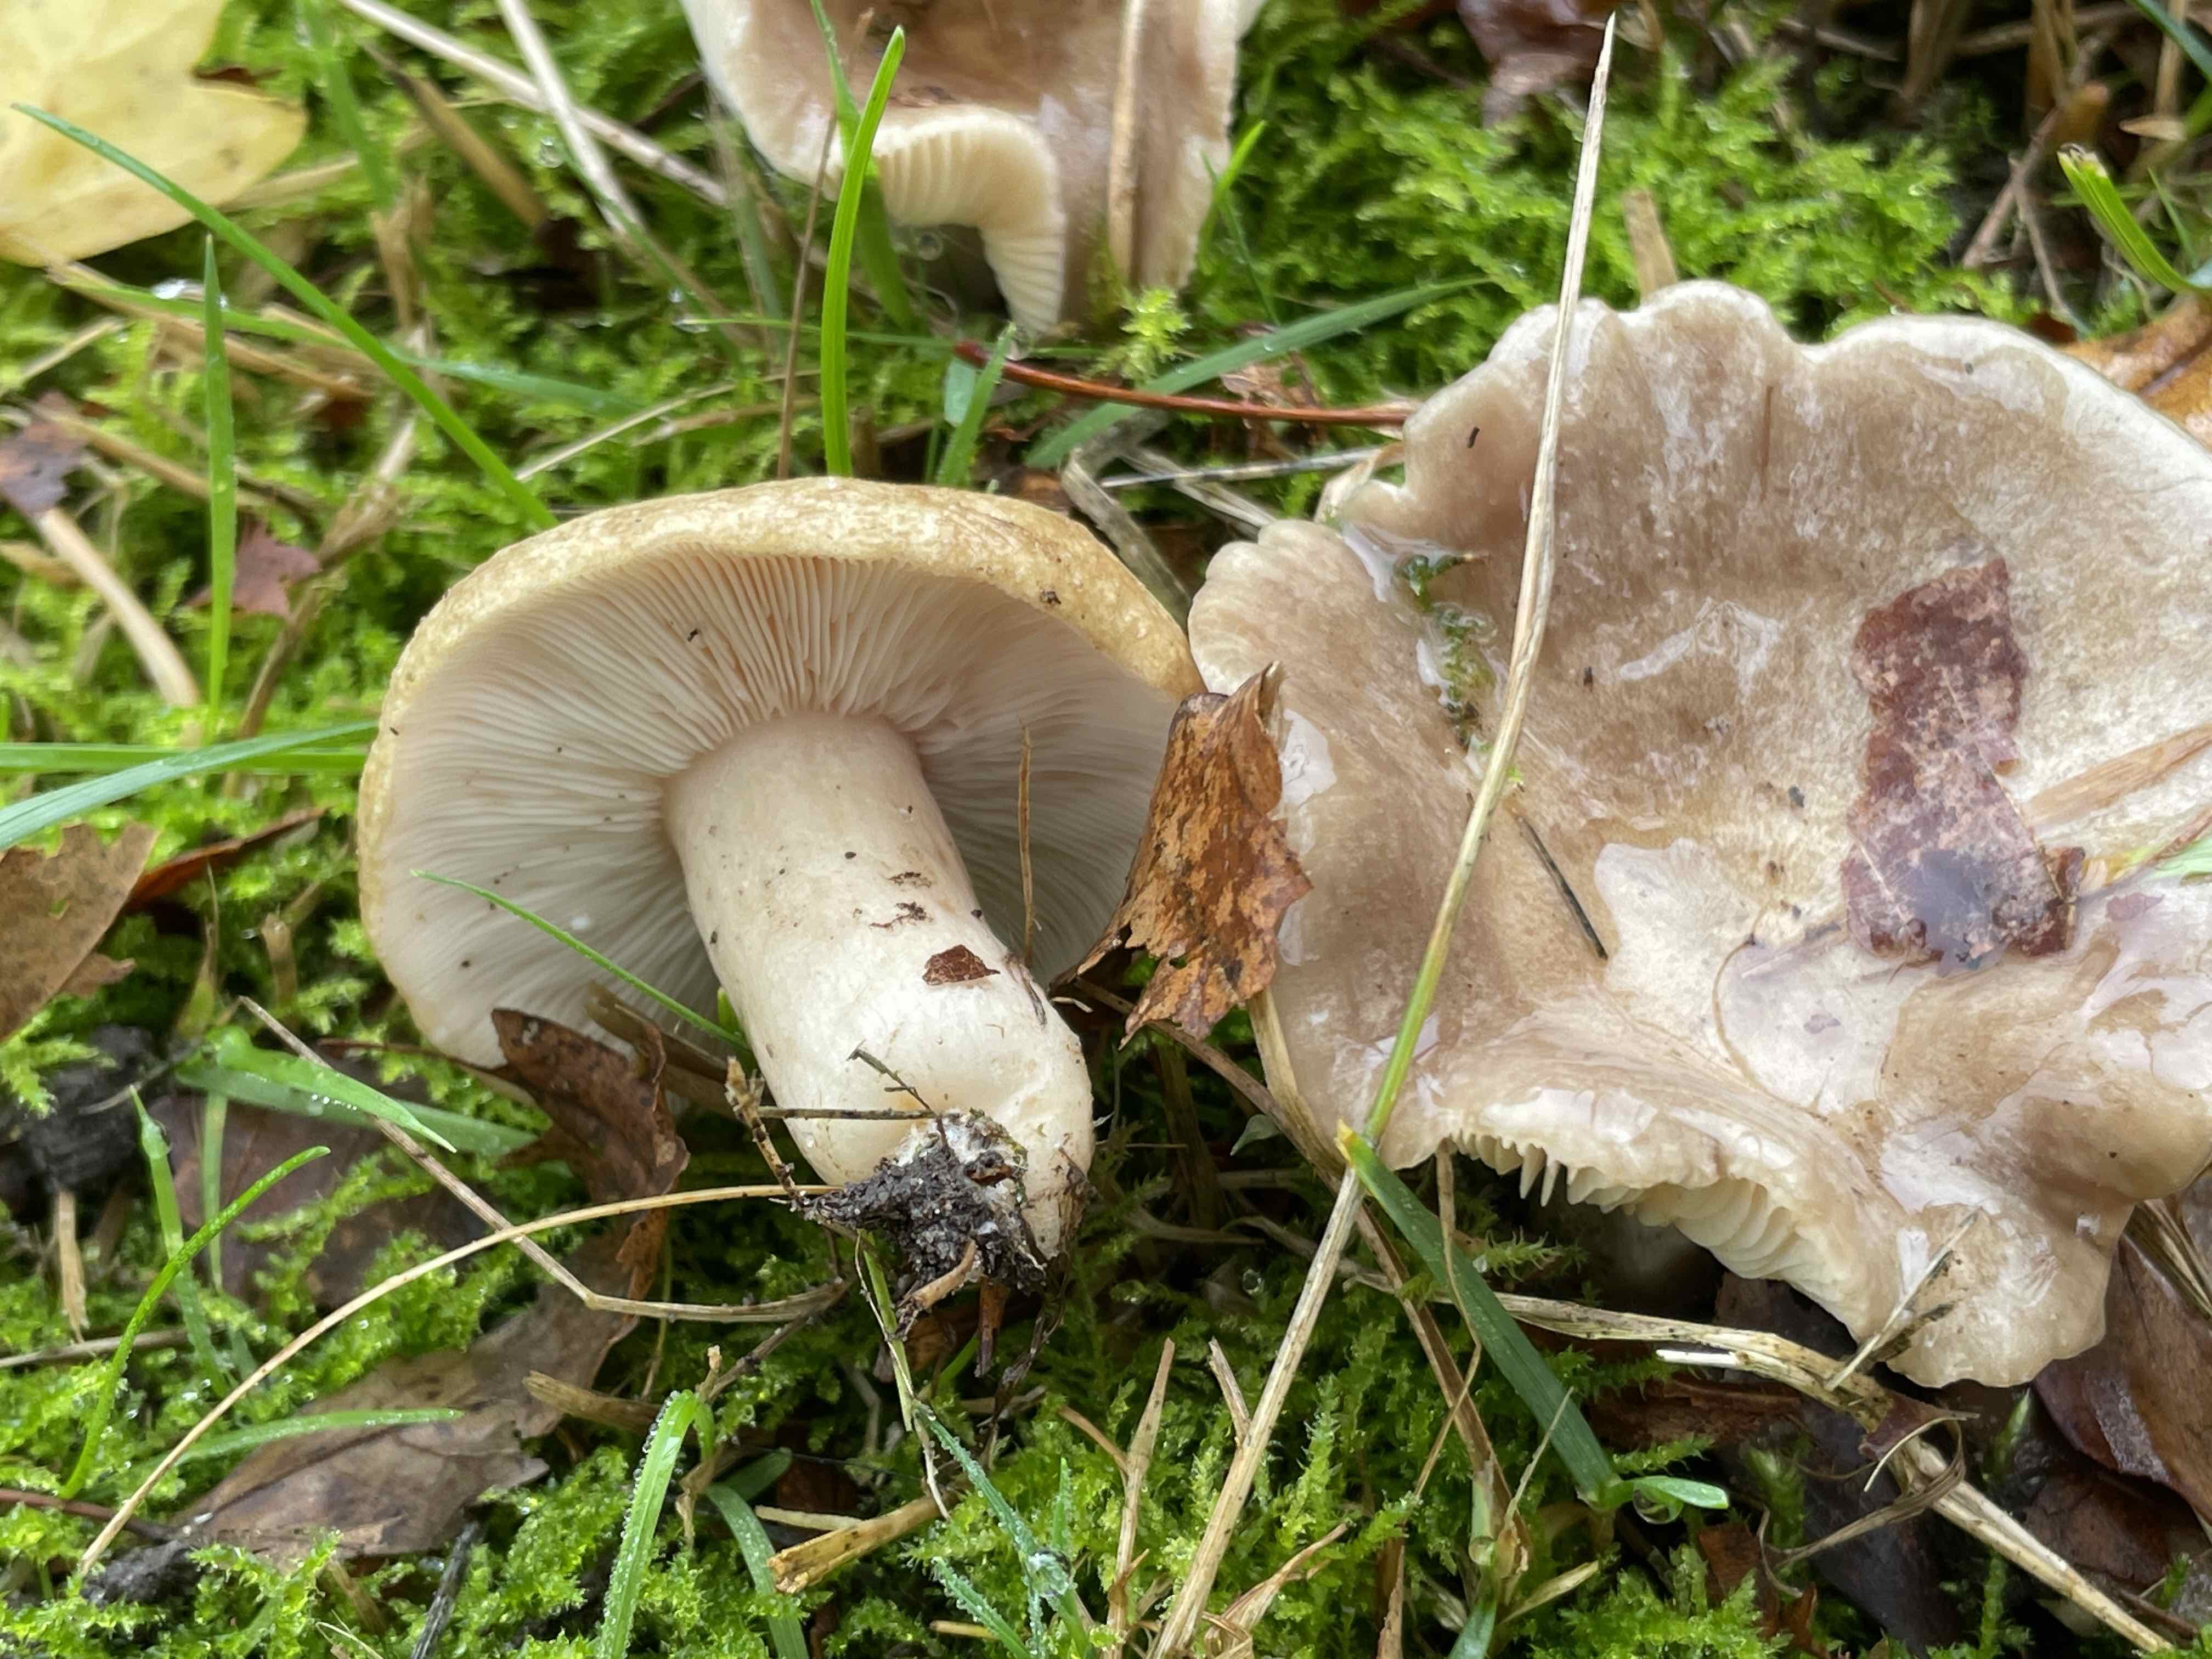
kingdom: Fungi
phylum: Basidiomycota
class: Agaricomycetes
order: Russulales
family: Russulaceae
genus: Lactarius
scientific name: Lactarius blennius
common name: dråbeplettet mælkehat
